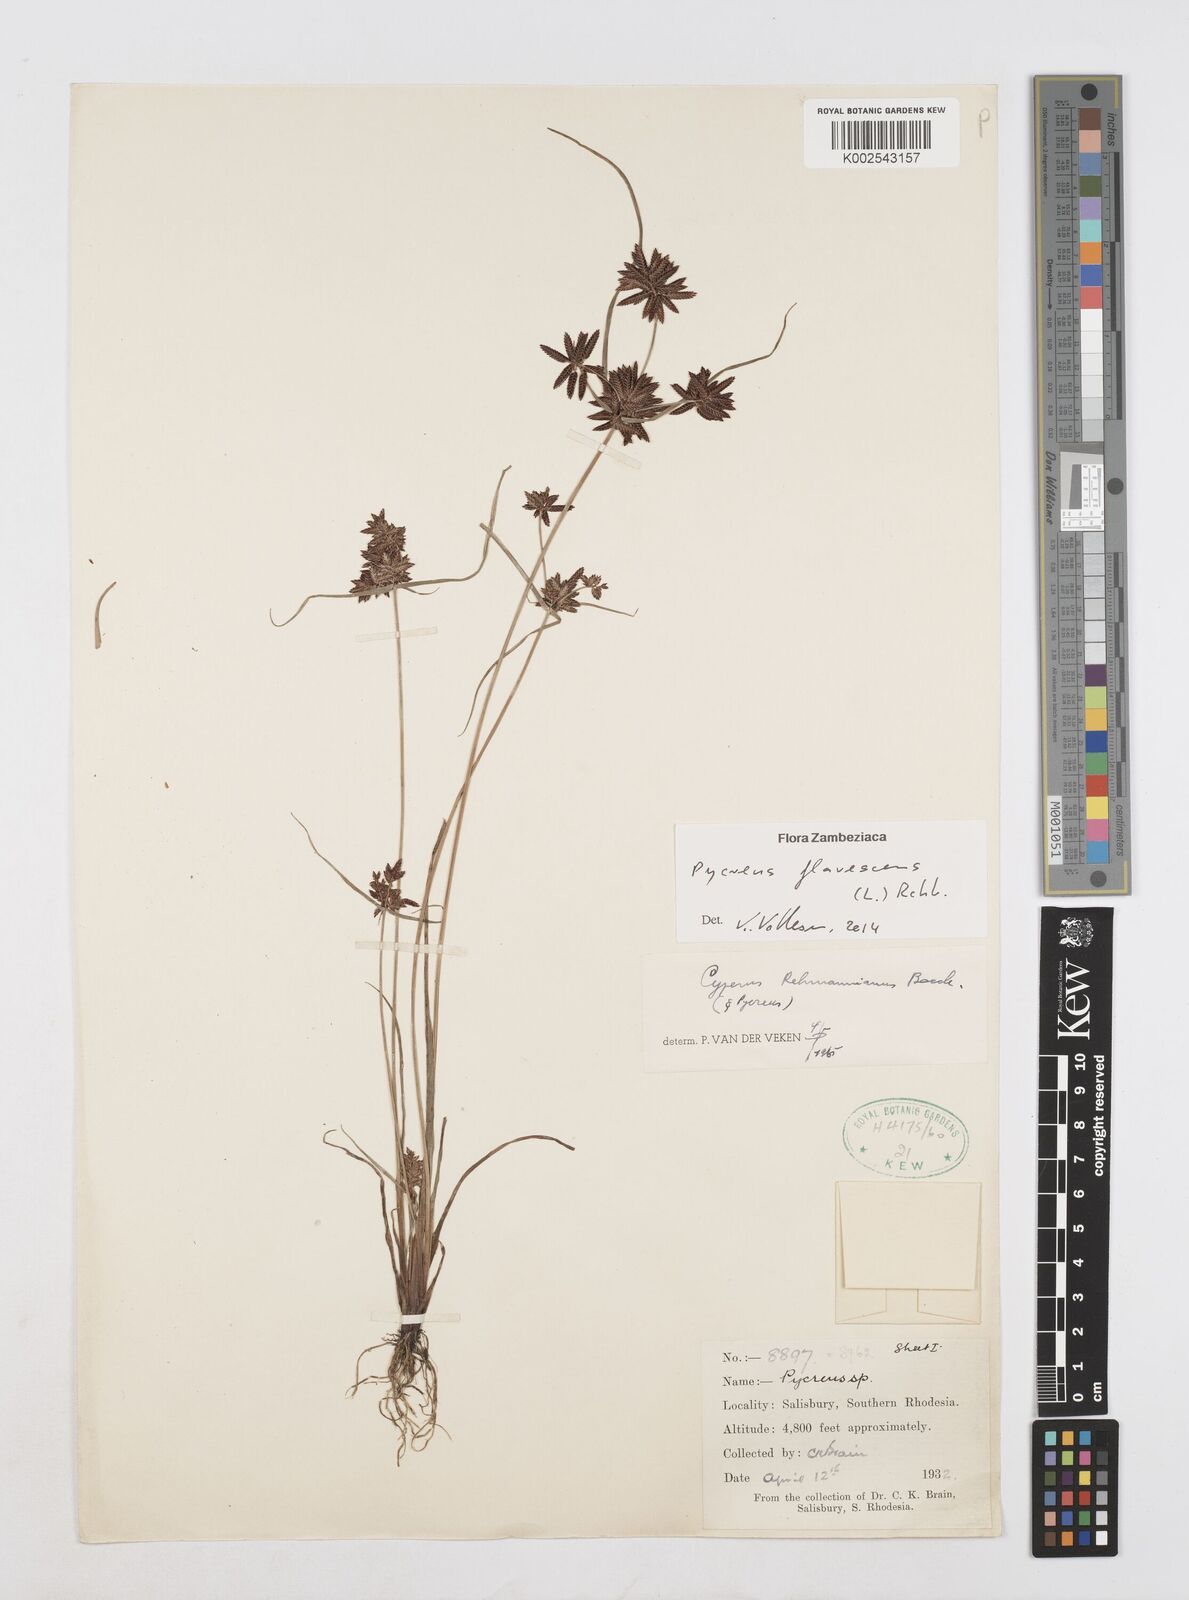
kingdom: Plantae
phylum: Tracheophyta
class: Liliopsida
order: Poales
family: Cyperaceae
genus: Cyperus
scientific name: Cyperus flavescens
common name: Yellow galingale
